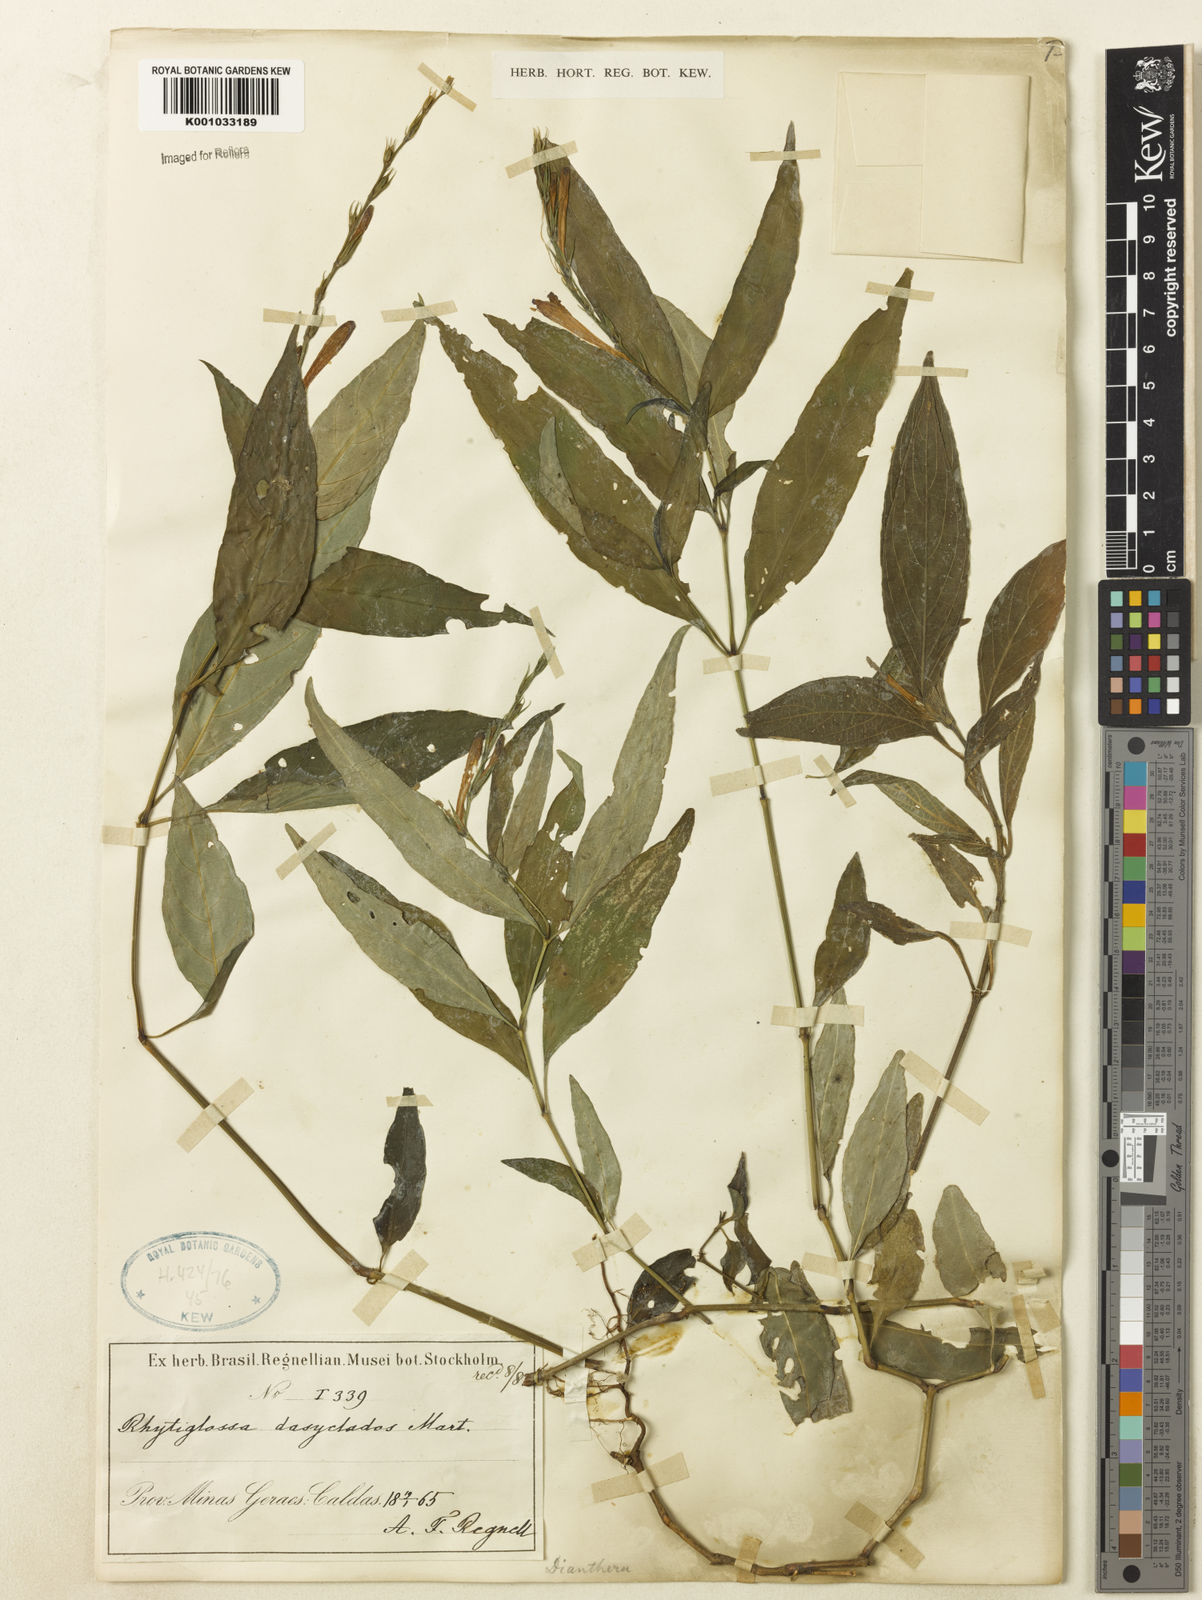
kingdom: Plantae
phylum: Tracheophyta
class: Magnoliopsida
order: Lamiales
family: Acanthaceae
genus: Dianthera
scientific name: Dianthera dasyclados
